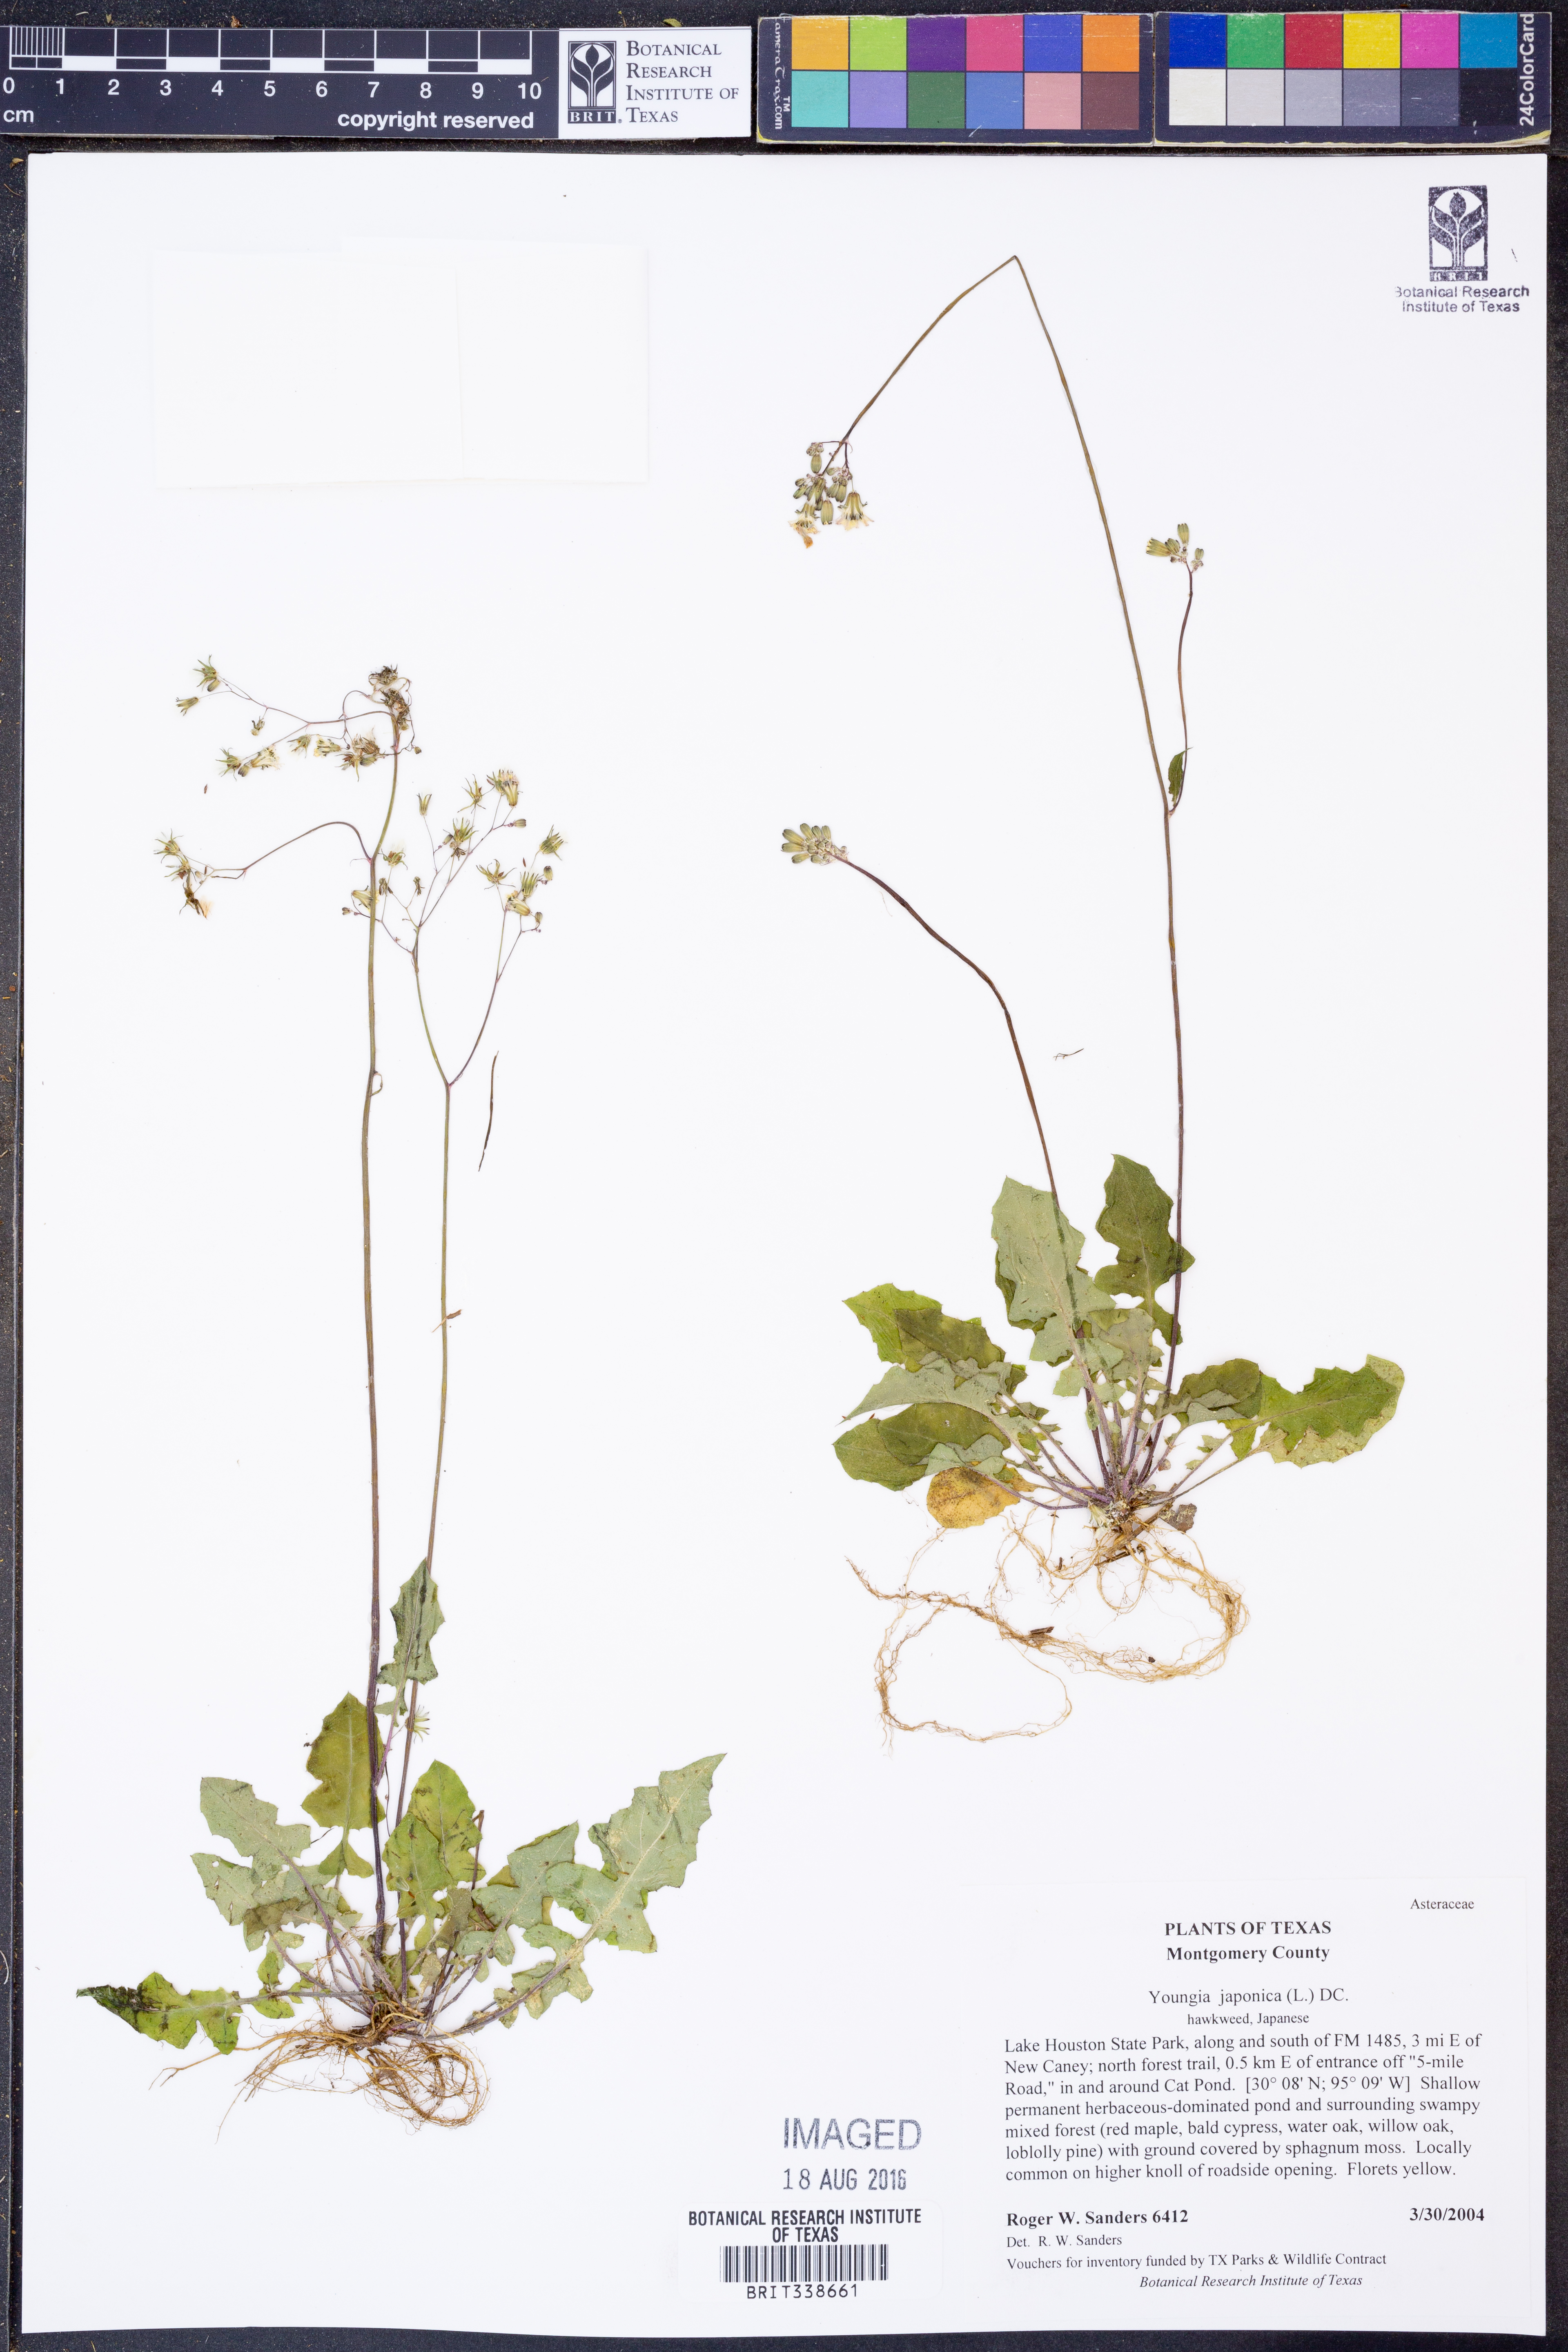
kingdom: Plantae
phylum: Tracheophyta
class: Magnoliopsida
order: Asterales
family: Asteraceae
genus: Youngia
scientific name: Youngia japonica
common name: Oriental false hawksbeard
